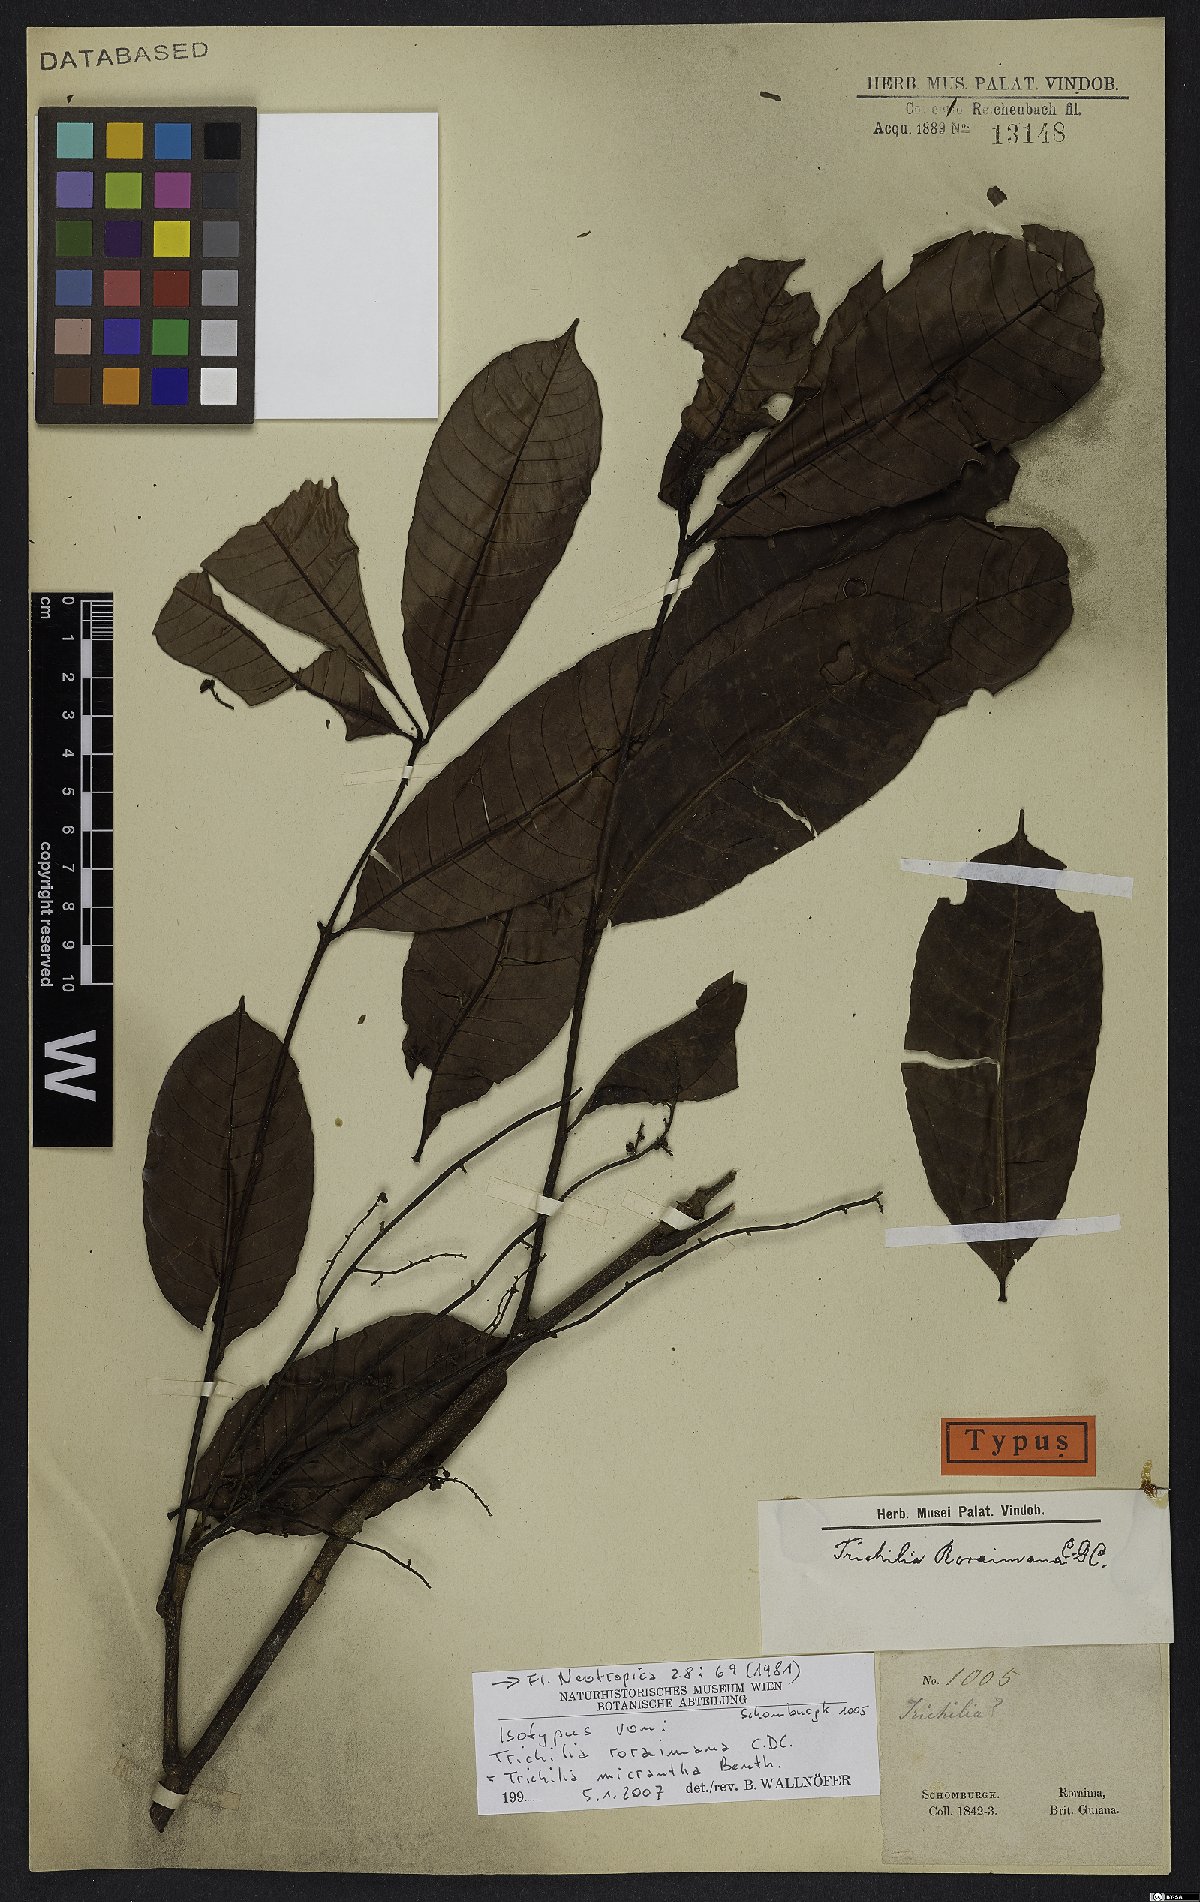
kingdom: Plantae
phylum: Tracheophyta
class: Magnoliopsida
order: Sapindales
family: Meliaceae
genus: Trichilia
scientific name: Trichilia micrantha
